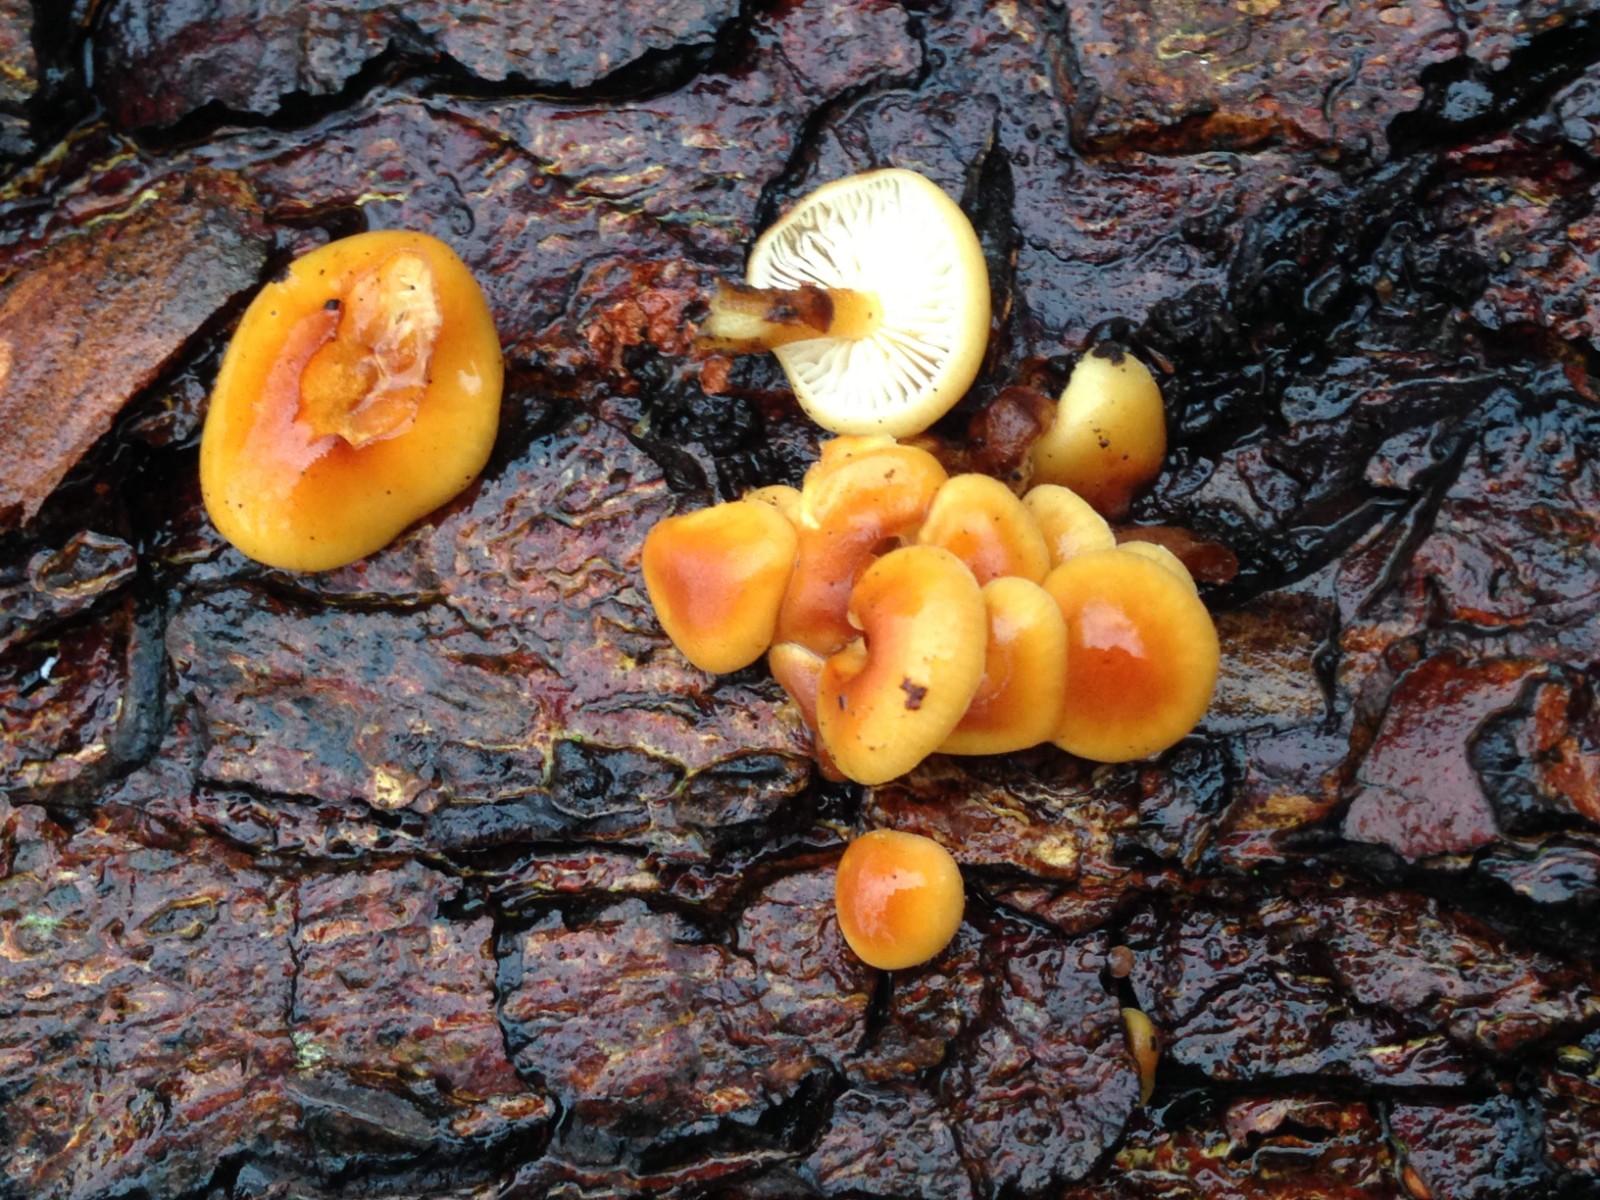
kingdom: Fungi
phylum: Basidiomycota
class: Agaricomycetes
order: Agaricales
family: Physalacriaceae
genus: Flammulina
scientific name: Flammulina velutipes
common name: gul fløjlsfod
